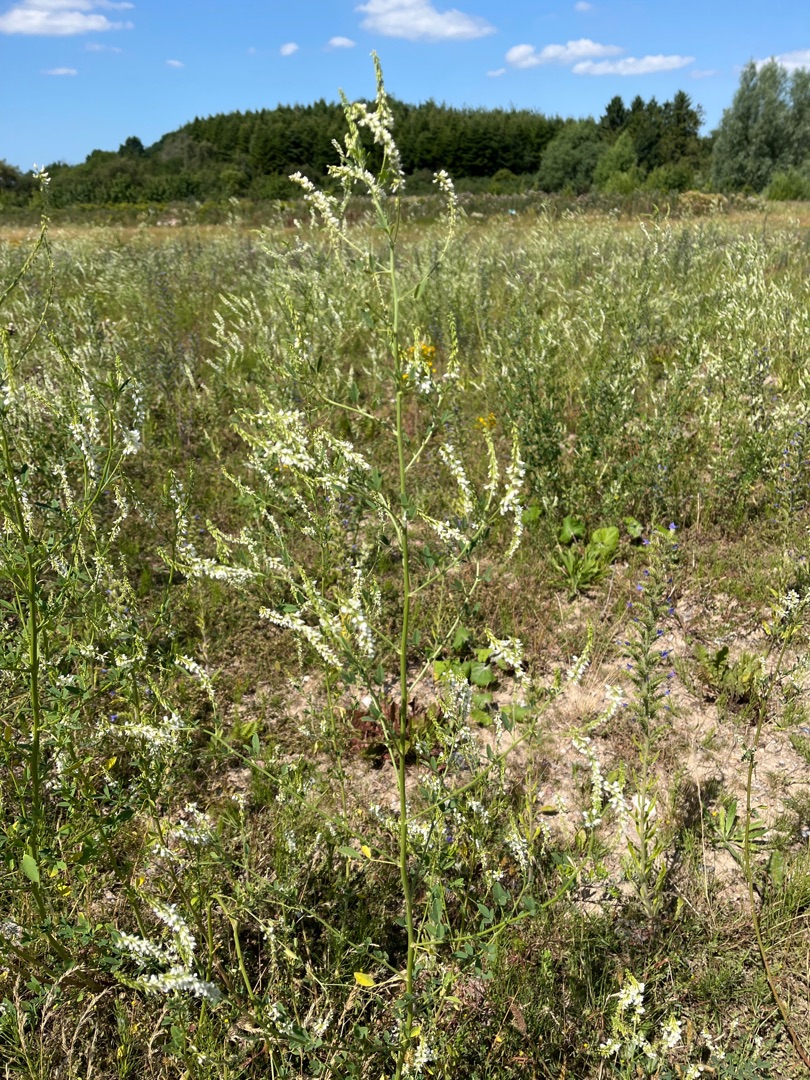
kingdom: Plantae
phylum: Tracheophyta
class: Magnoliopsida
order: Fabales
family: Fabaceae
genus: Melilotus
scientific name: Melilotus albus
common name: Hvid stenkløver
